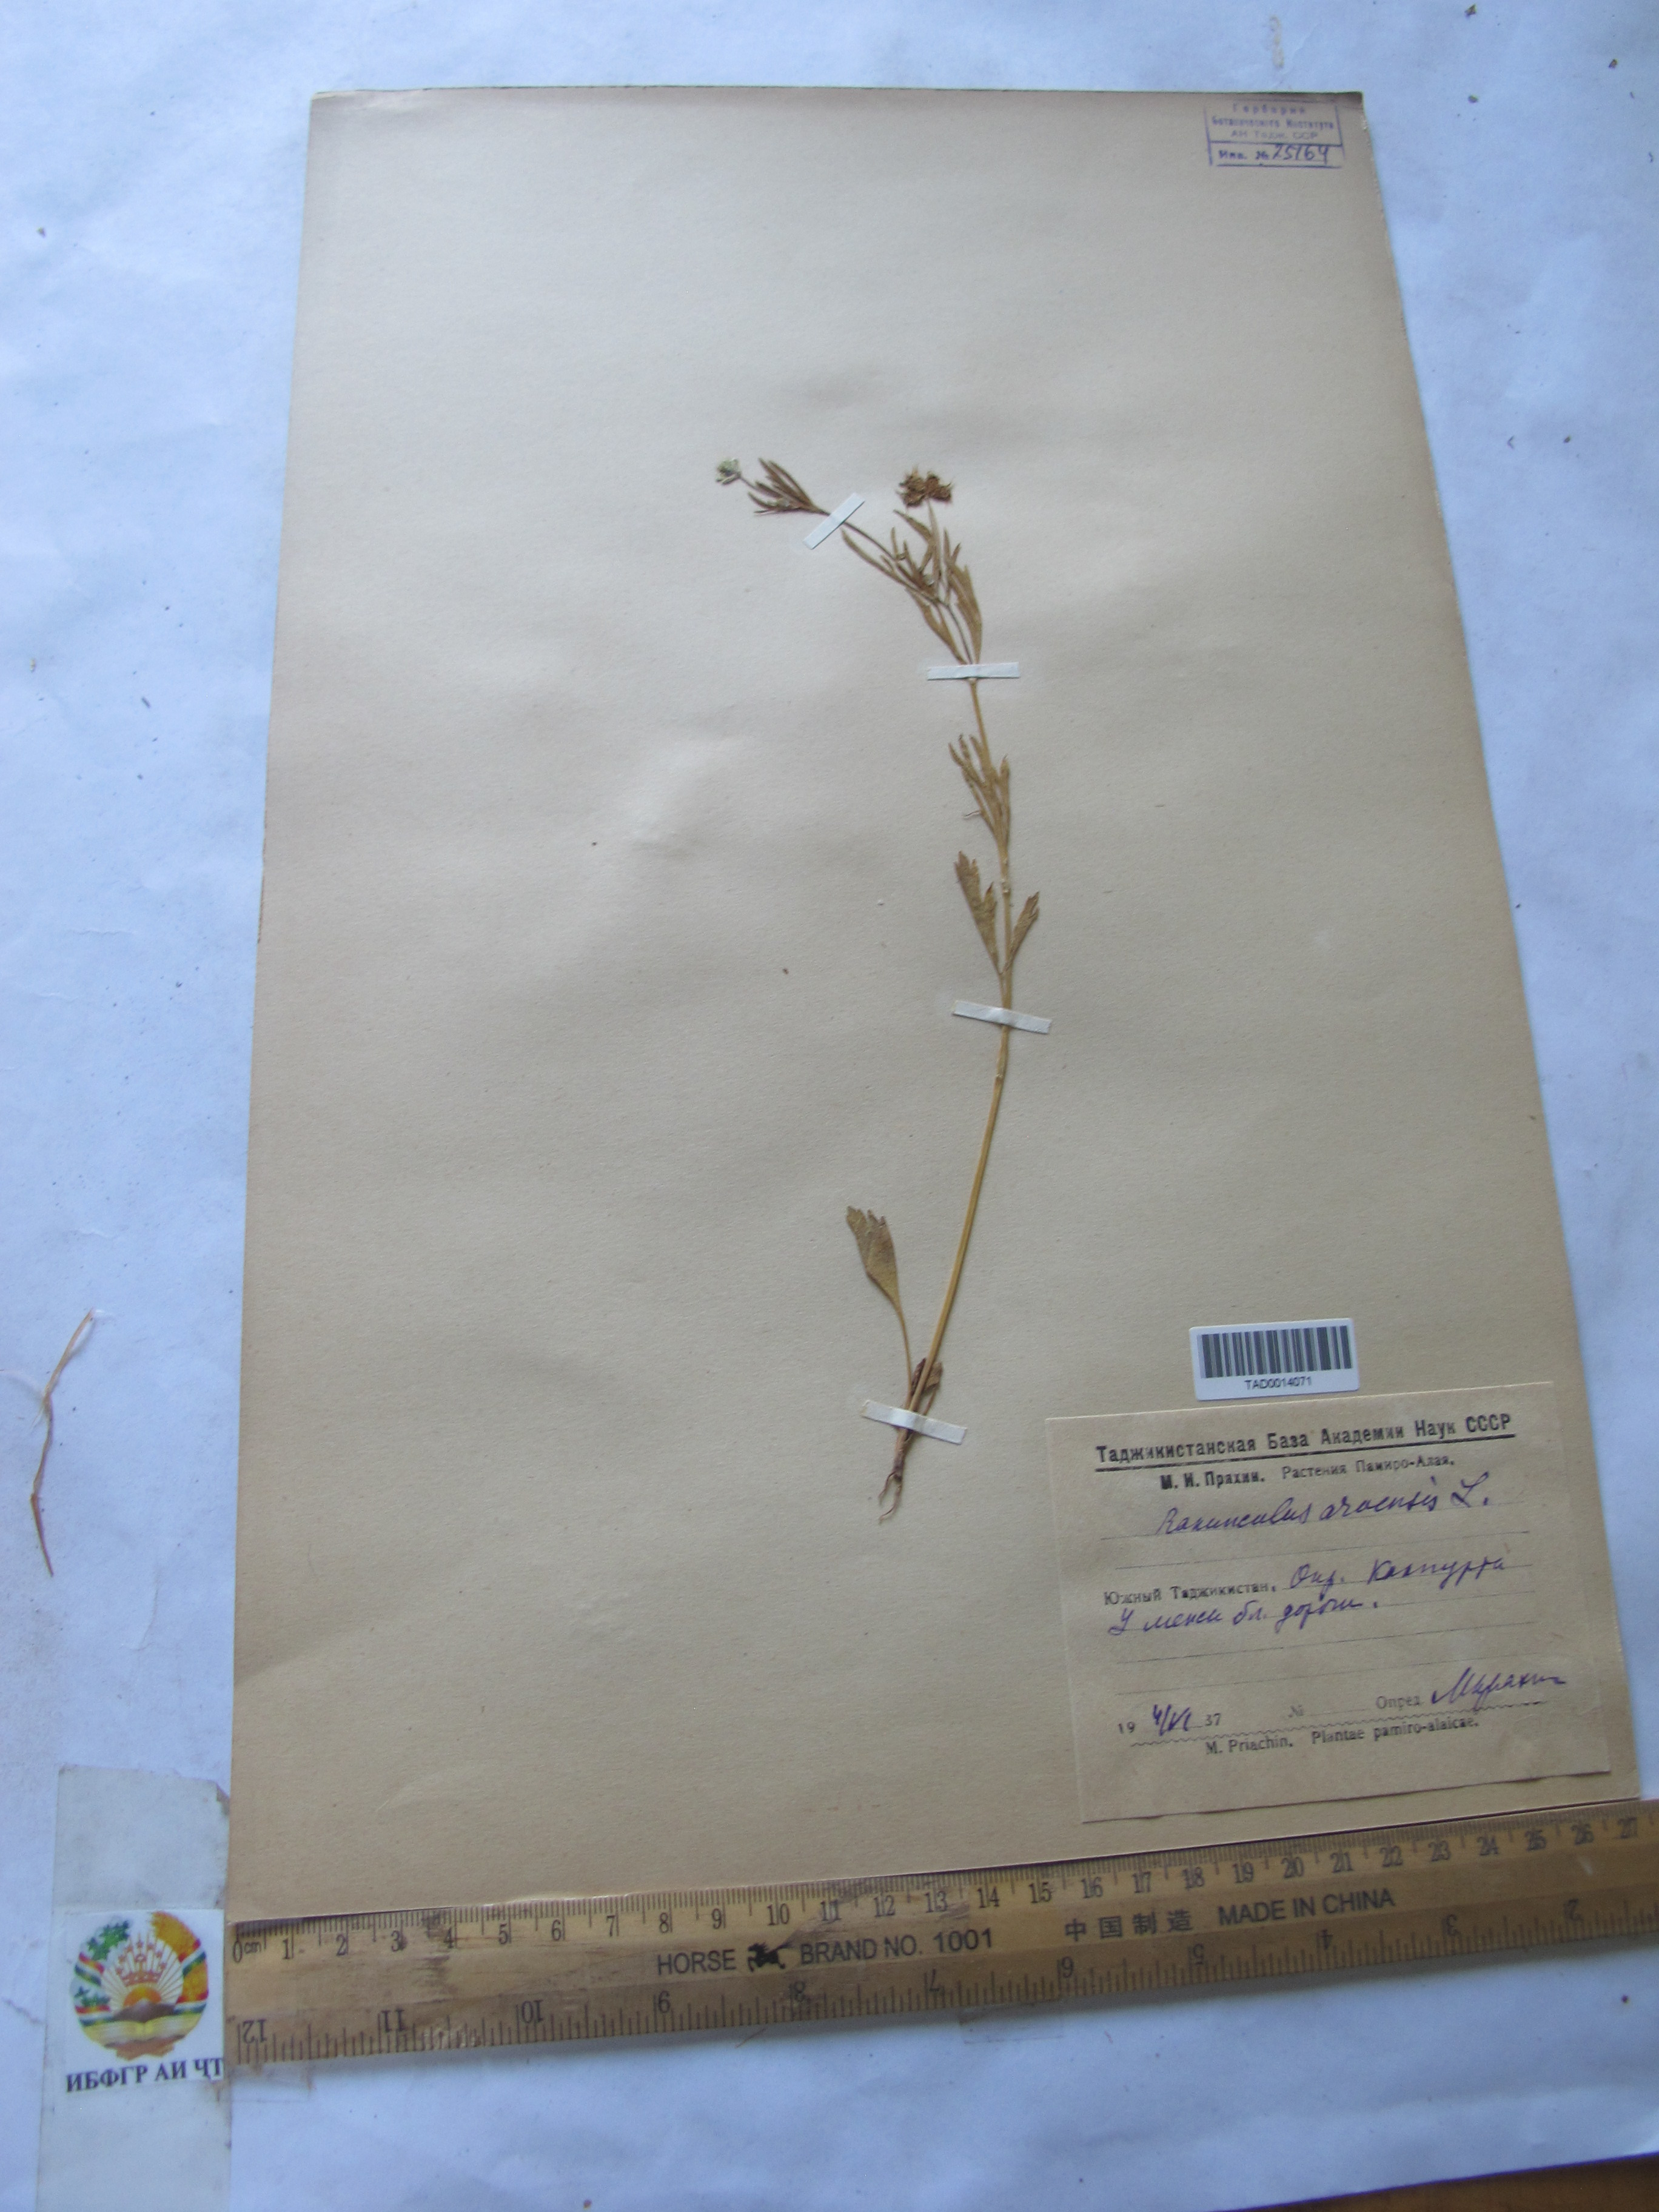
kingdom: Plantae
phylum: Tracheophyta
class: Magnoliopsida
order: Ranunculales
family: Ranunculaceae
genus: Ranunculus
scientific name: Ranunculus arvensis
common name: Corn buttercup
